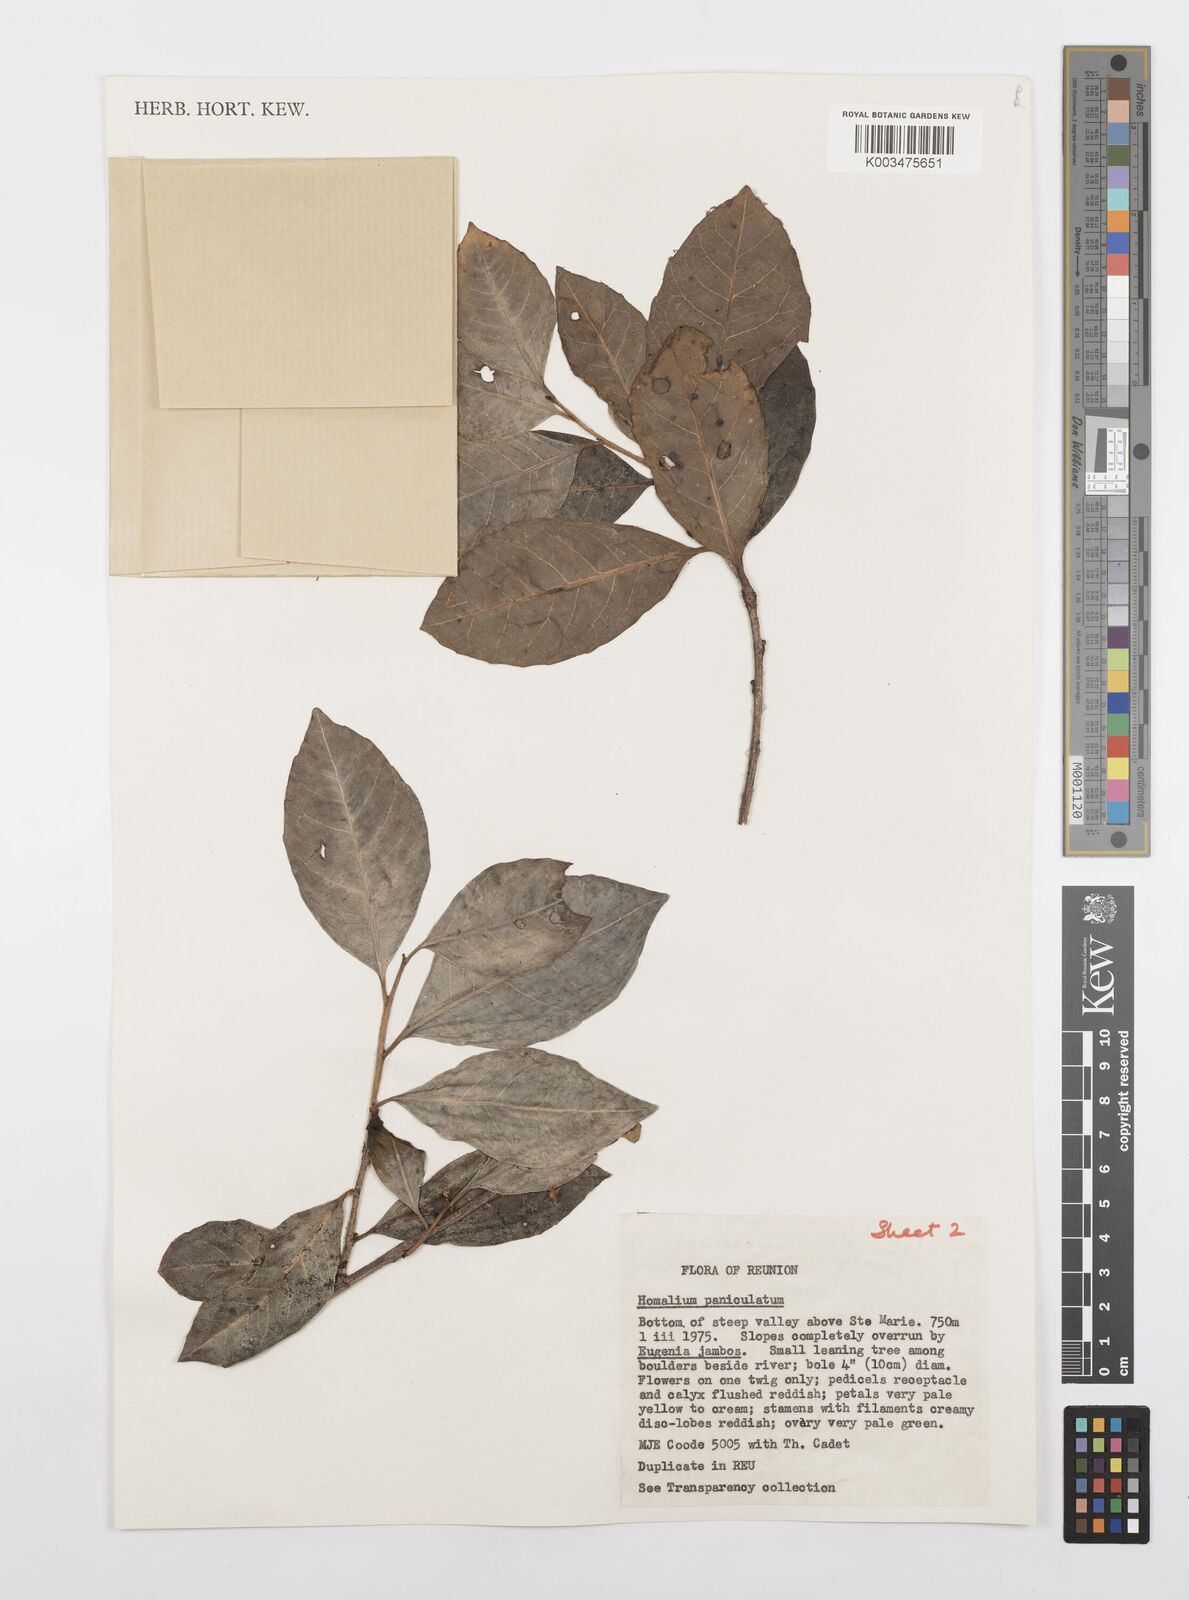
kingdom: Plantae
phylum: Tracheophyta
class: Magnoliopsida
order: Malpighiales
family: Salicaceae
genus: Homalium
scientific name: Homalium erianthum
